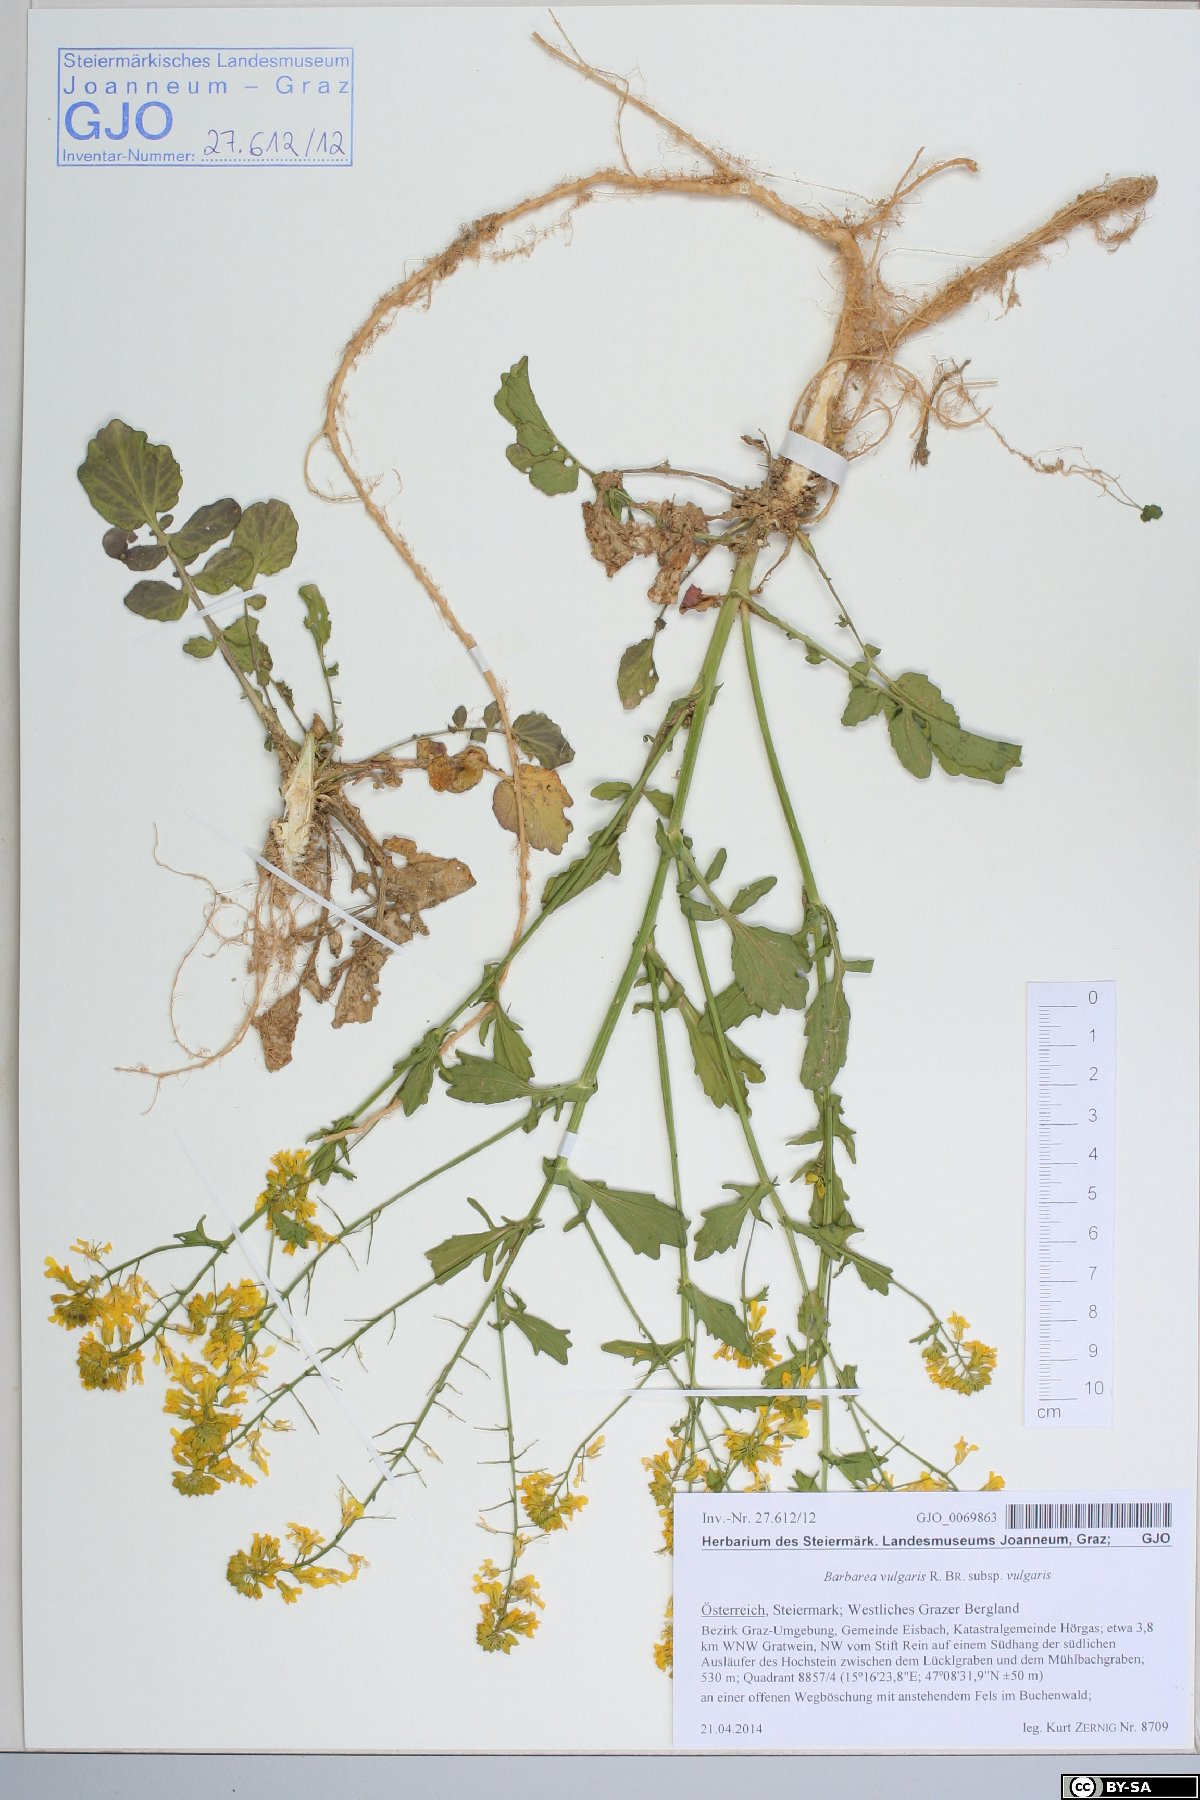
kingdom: Plantae
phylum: Tracheophyta
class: Magnoliopsida
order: Brassicales
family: Brassicaceae
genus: Barbarea
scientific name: Barbarea vulgaris
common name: Cressy-greens
